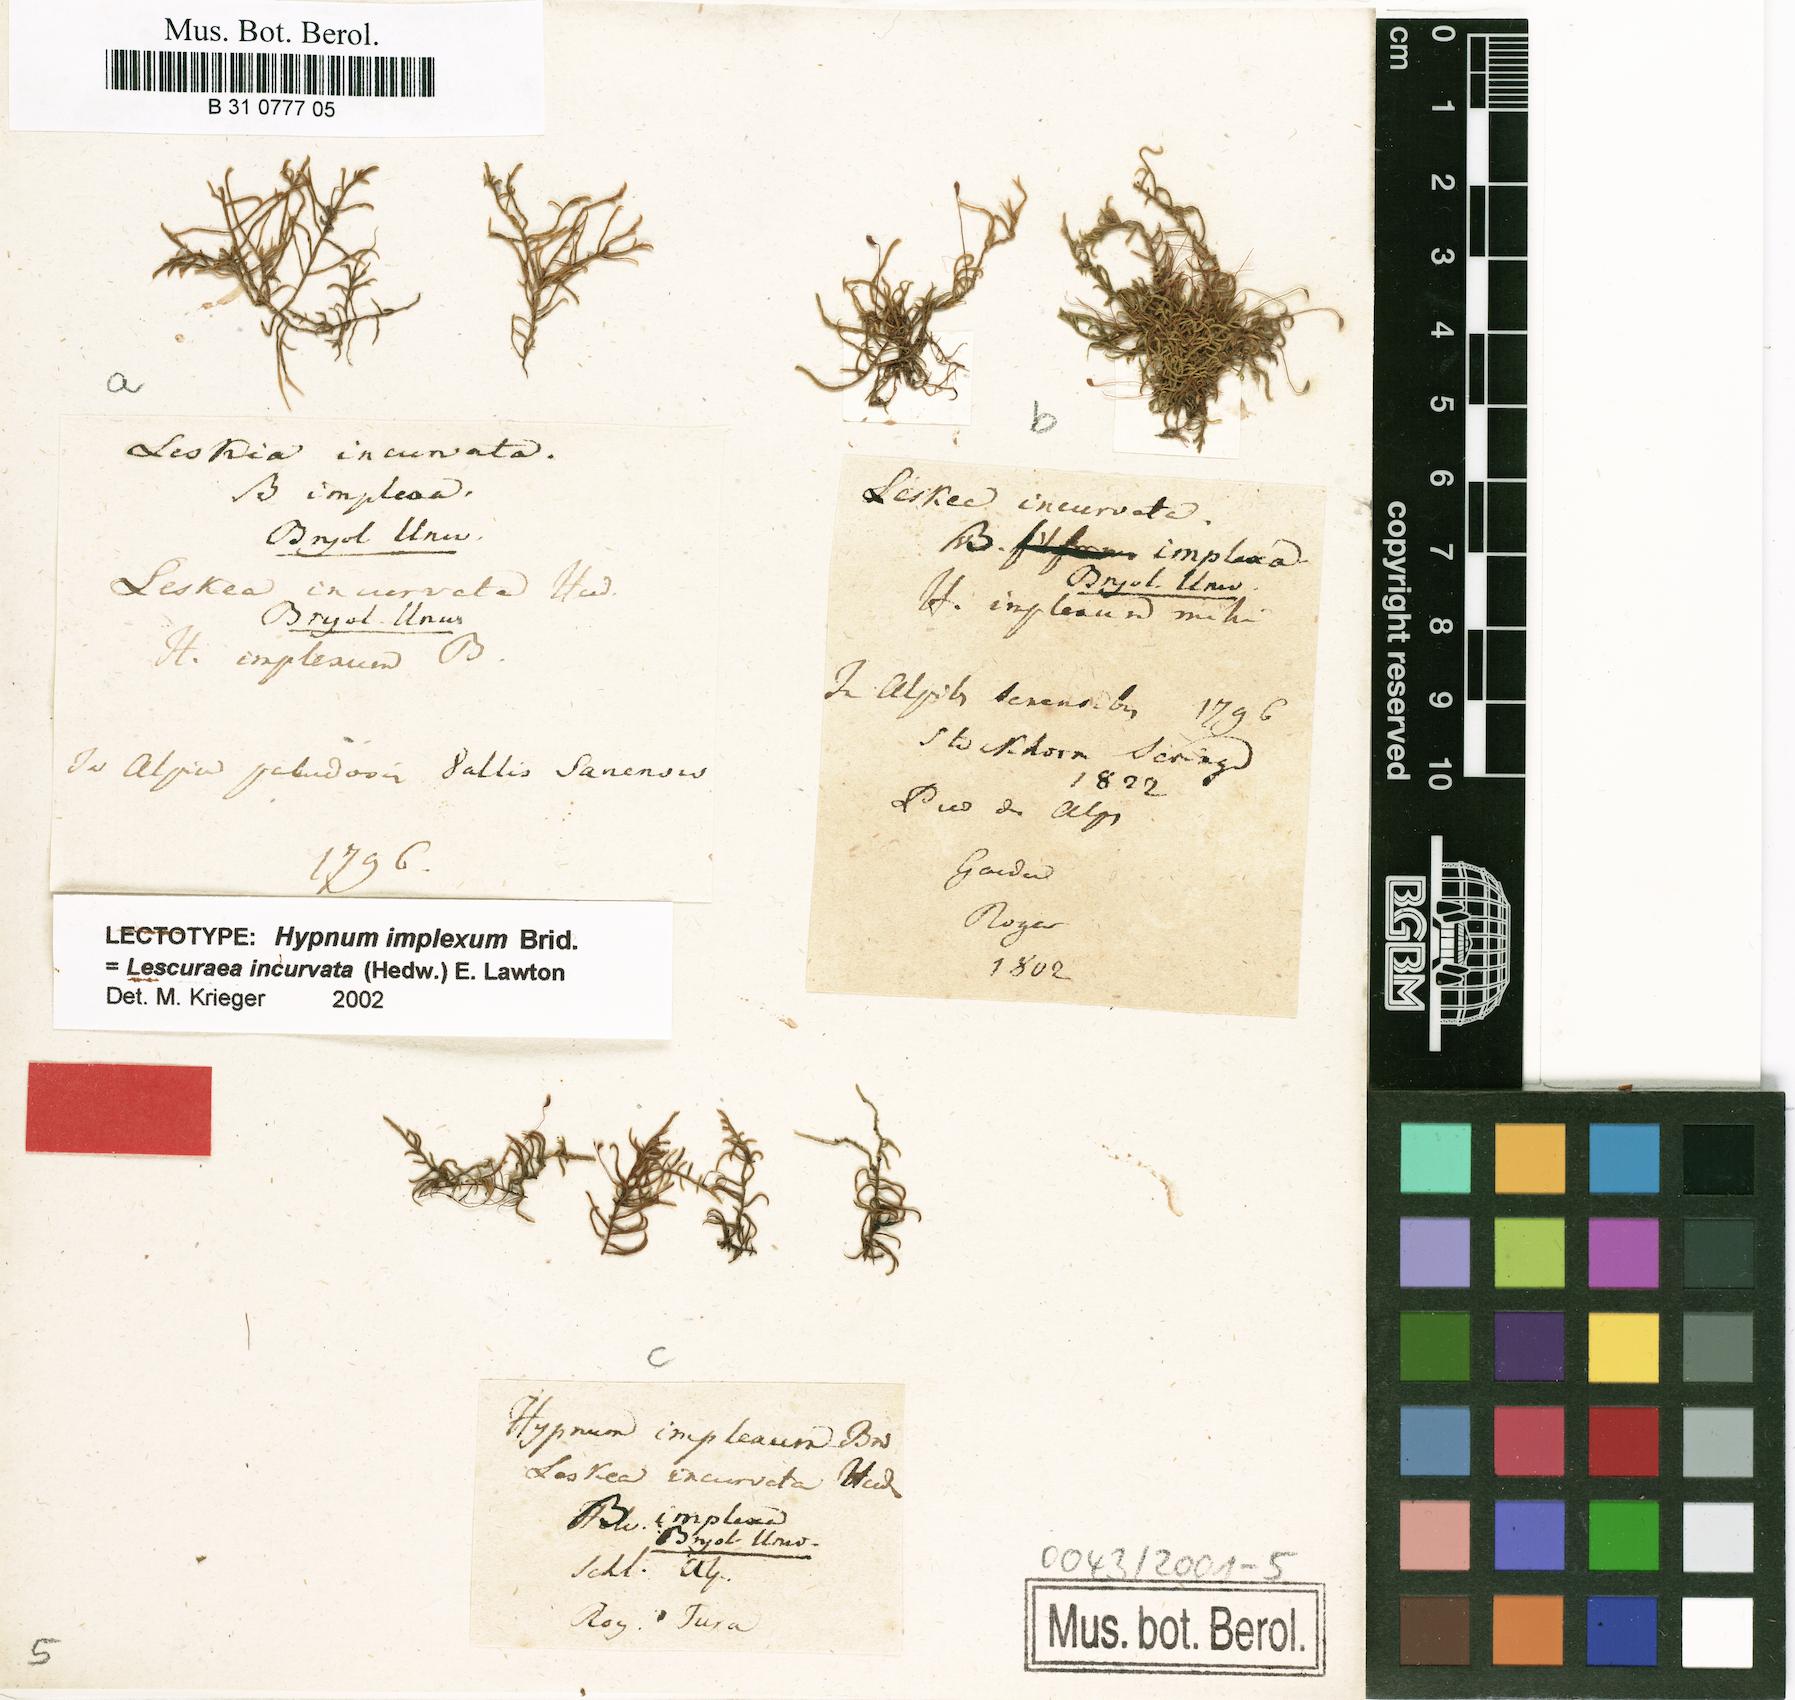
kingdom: Plantae
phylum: Bryophyta
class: Bryopsida
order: Hypnales
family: Pseudoleskeaceae
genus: Lescuraea
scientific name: Lescuraea incurvata
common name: Brown mountain leskea
